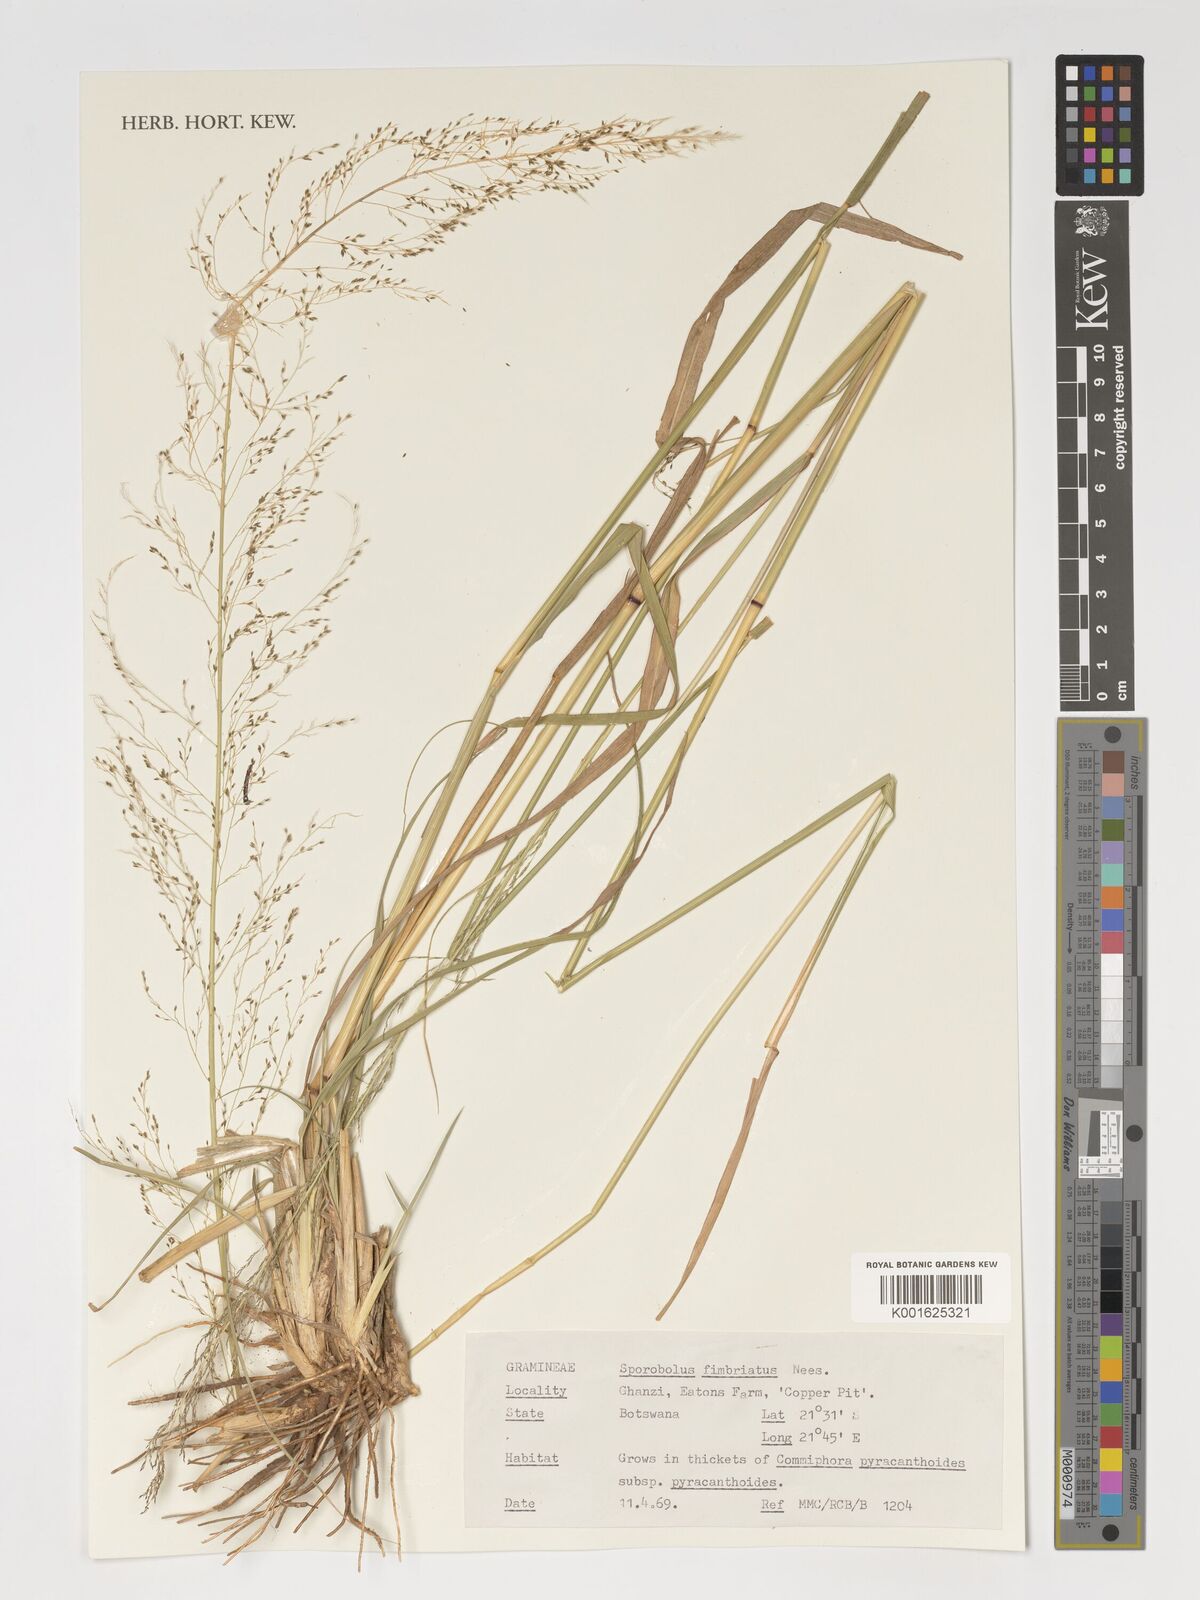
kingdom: Plantae
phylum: Tracheophyta
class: Liliopsida
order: Poales
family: Poaceae
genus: Sporobolus
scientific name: Sporobolus fimbriatus
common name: Fringed dropseed
